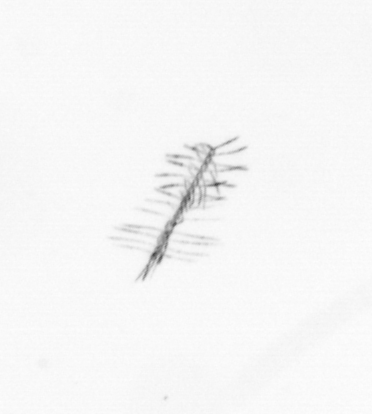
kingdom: Chromista
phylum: Ochrophyta
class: Bacillariophyceae
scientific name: Bacillariophyceae
